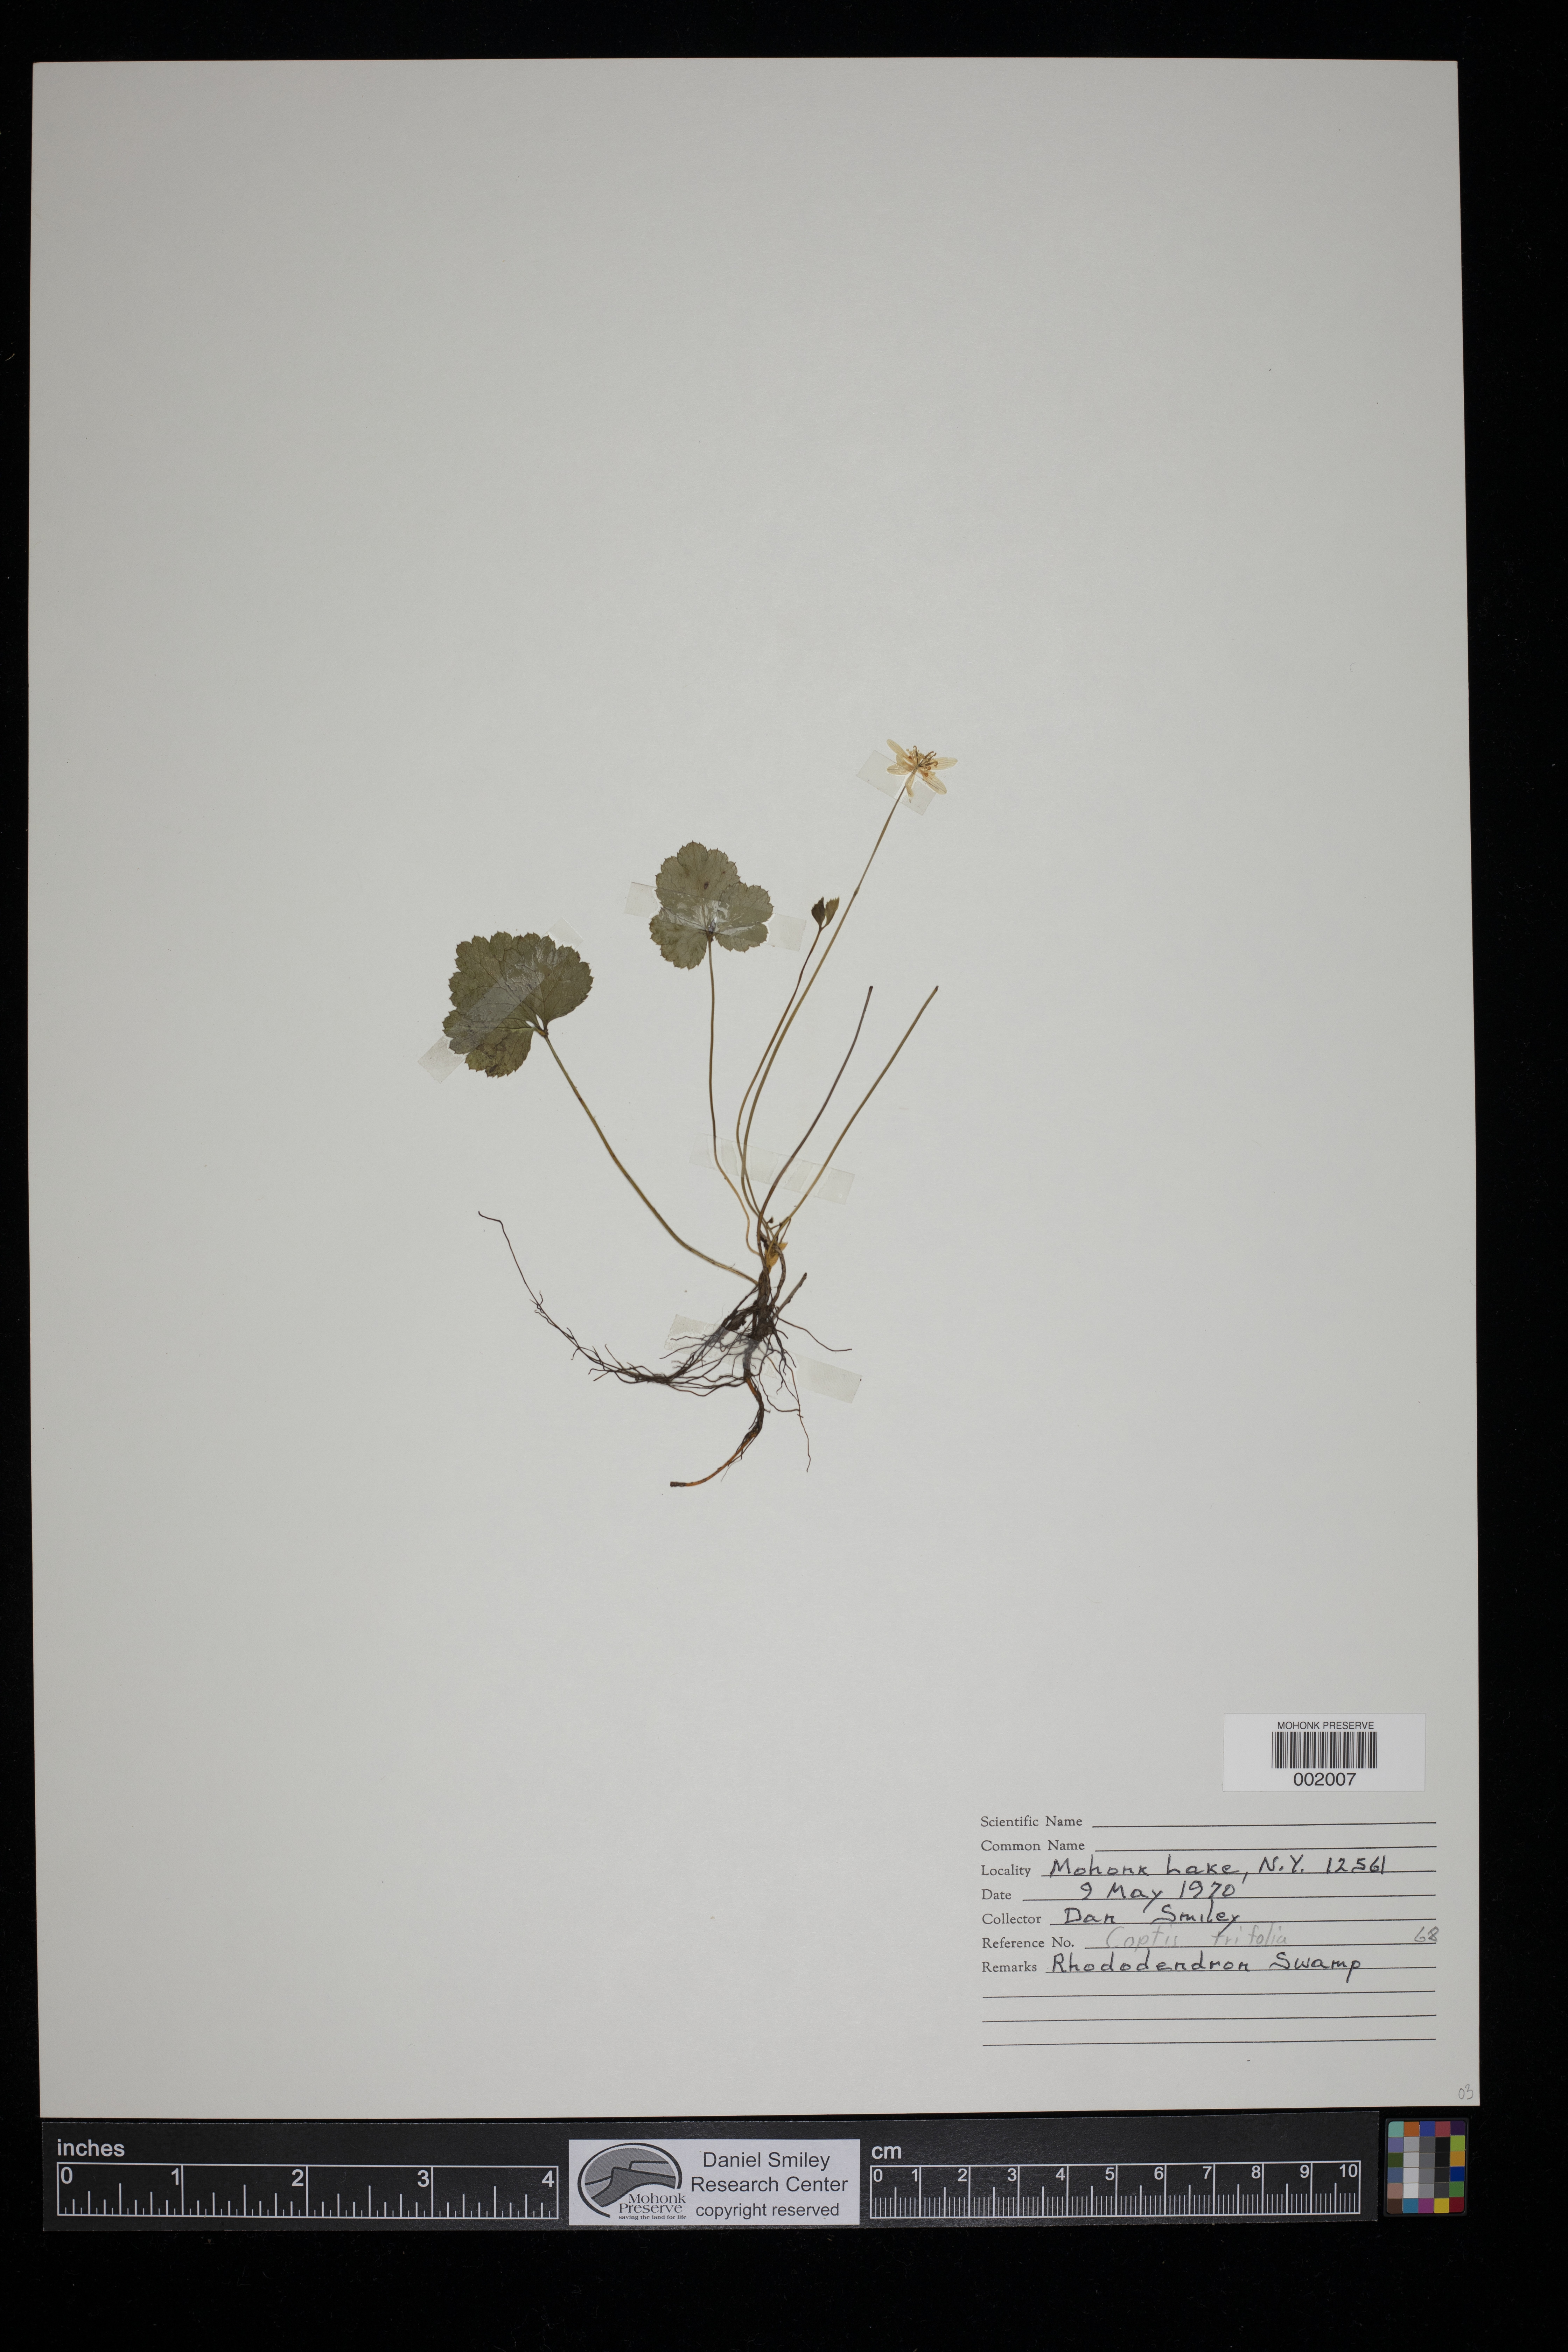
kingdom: Plantae
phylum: Tracheophyta
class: Magnoliopsida
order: Ranunculales
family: Ranunculaceae
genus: Coptis
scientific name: Coptis trifolia
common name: Canker-root
